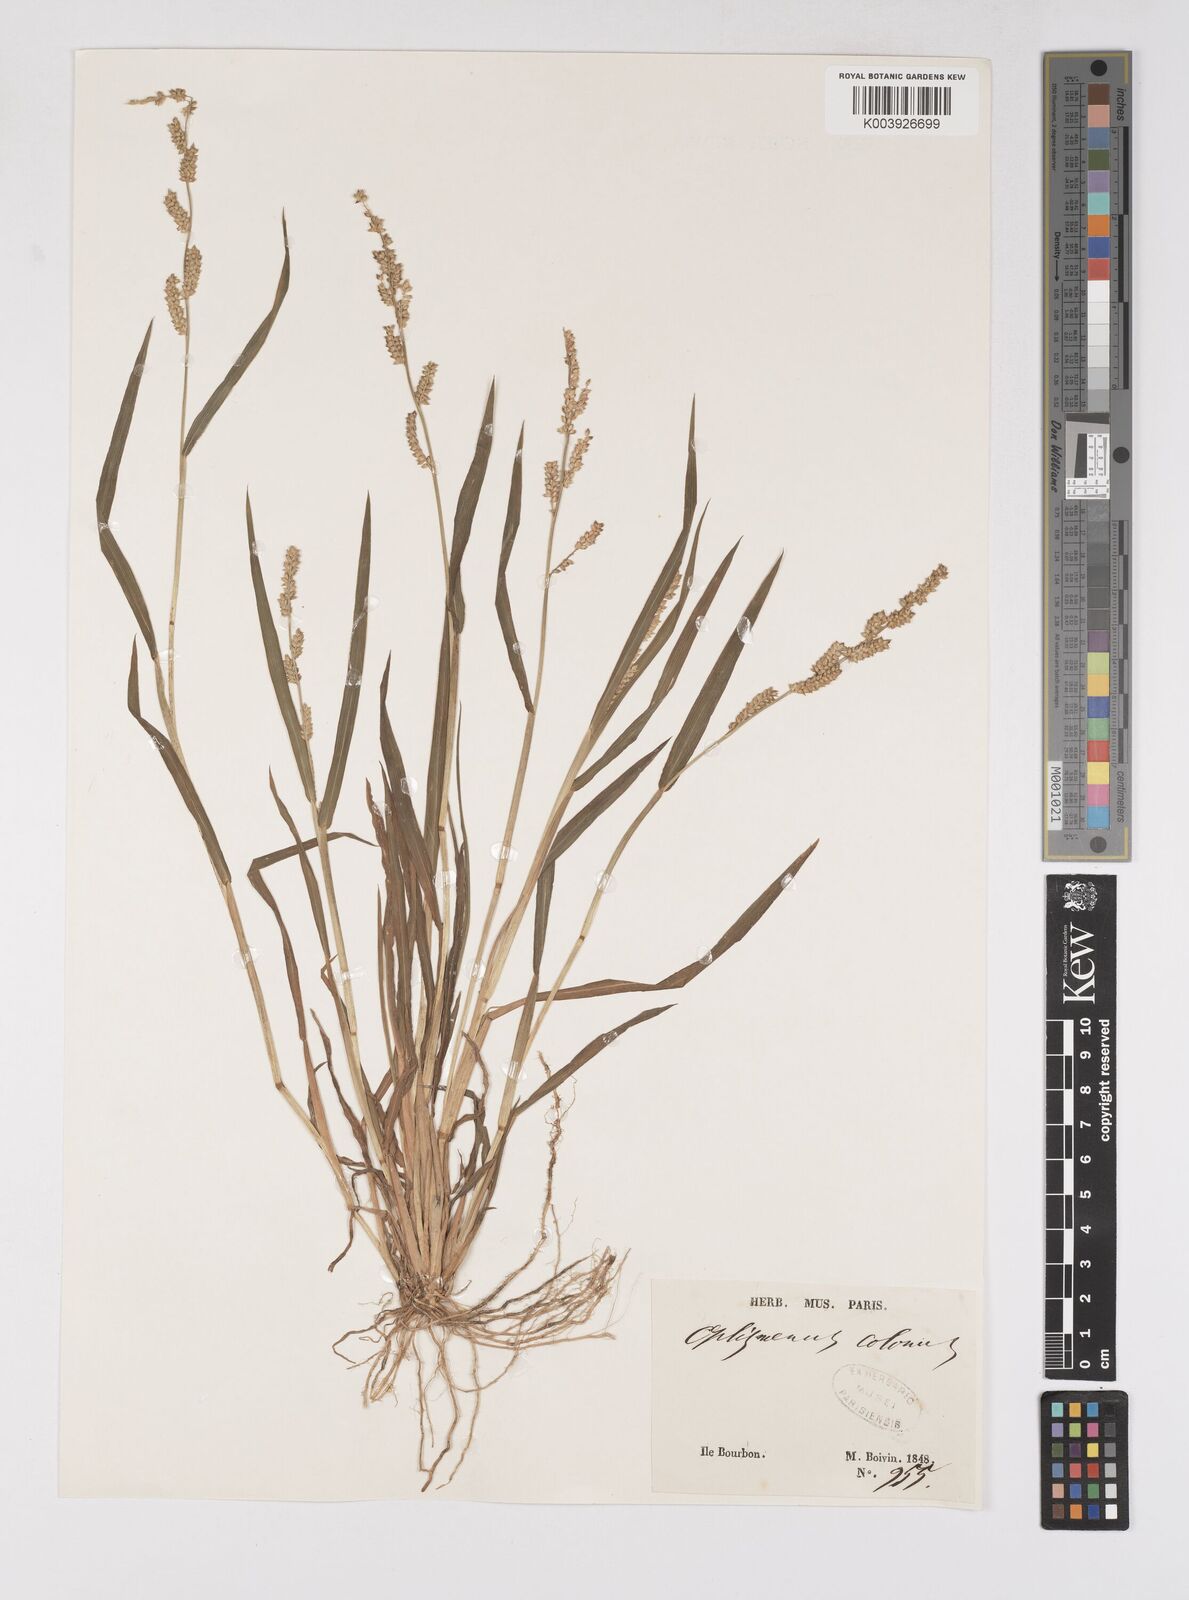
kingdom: Plantae
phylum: Tracheophyta
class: Liliopsida
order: Poales
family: Poaceae
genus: Echinochloa
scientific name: Echinochloa colonum
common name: Jungle rice
